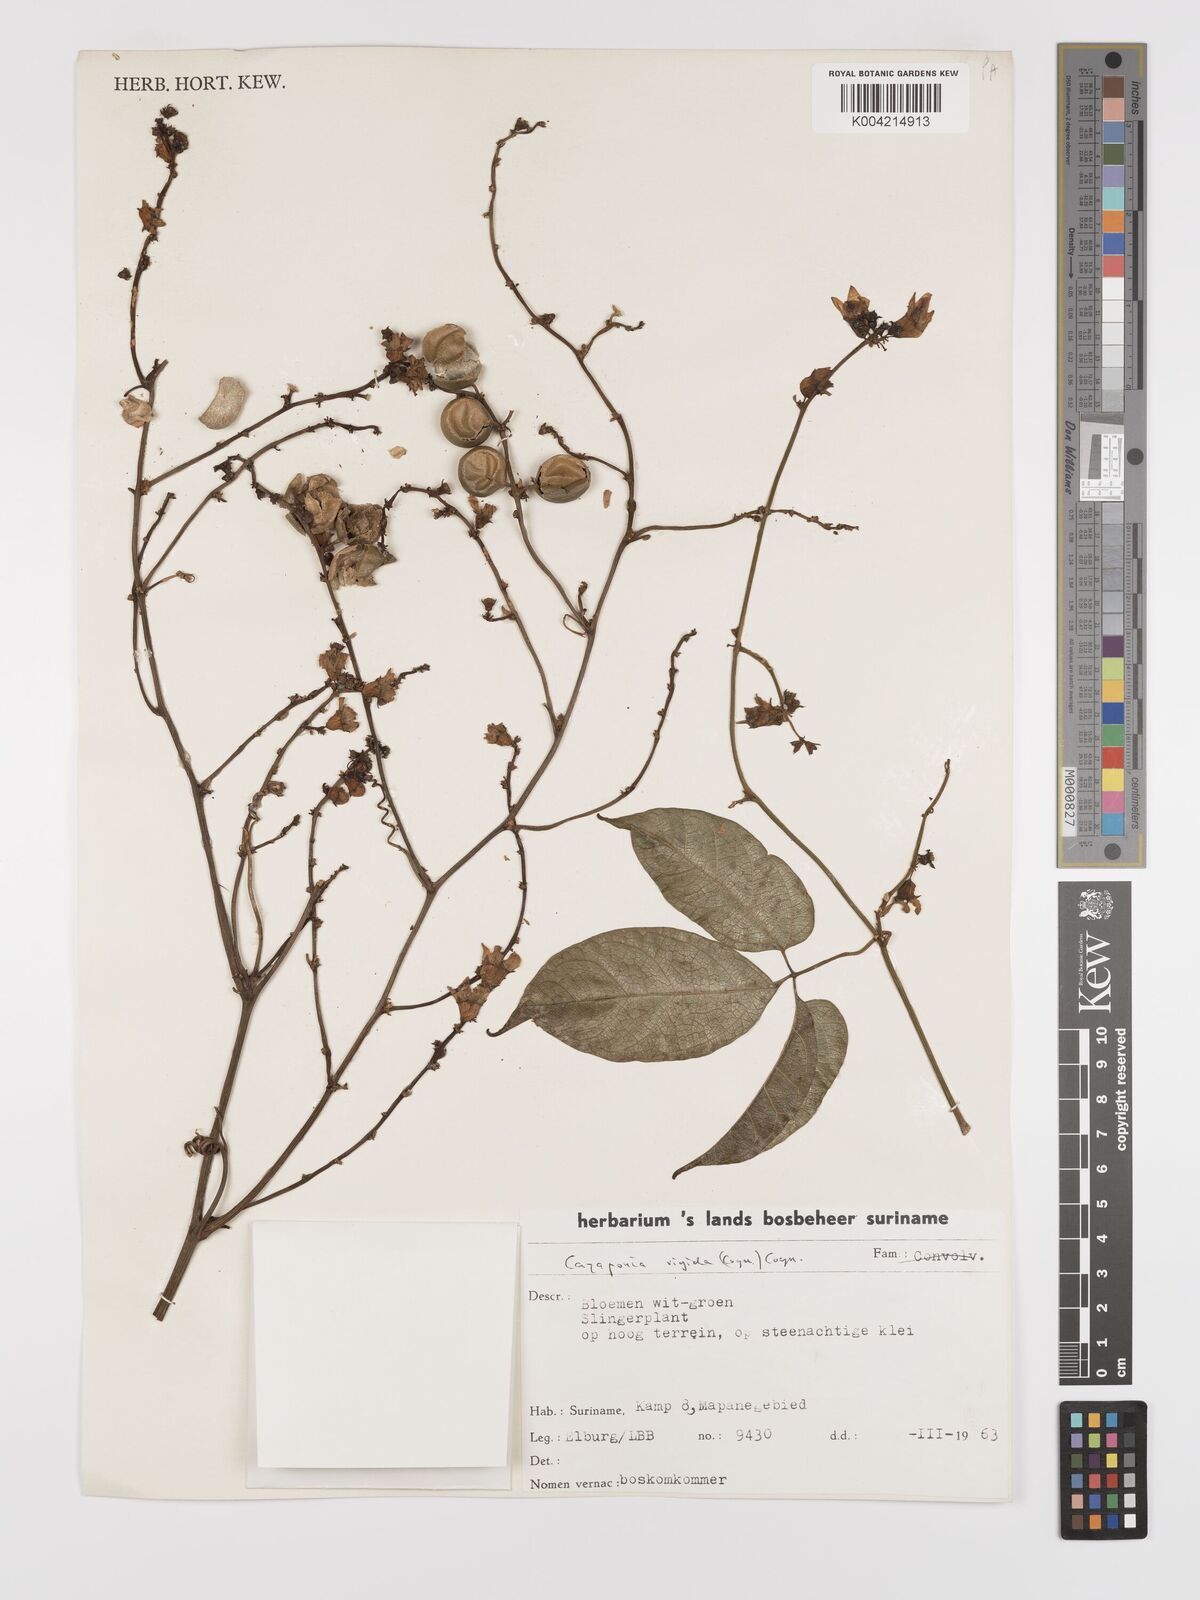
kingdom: Plantae
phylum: Tracheophyta
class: Magnoliopsida
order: Cucurbitales
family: Cucurbitaceae
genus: Cayaponia
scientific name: Cayaponia rigida
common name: Boskomkommer
